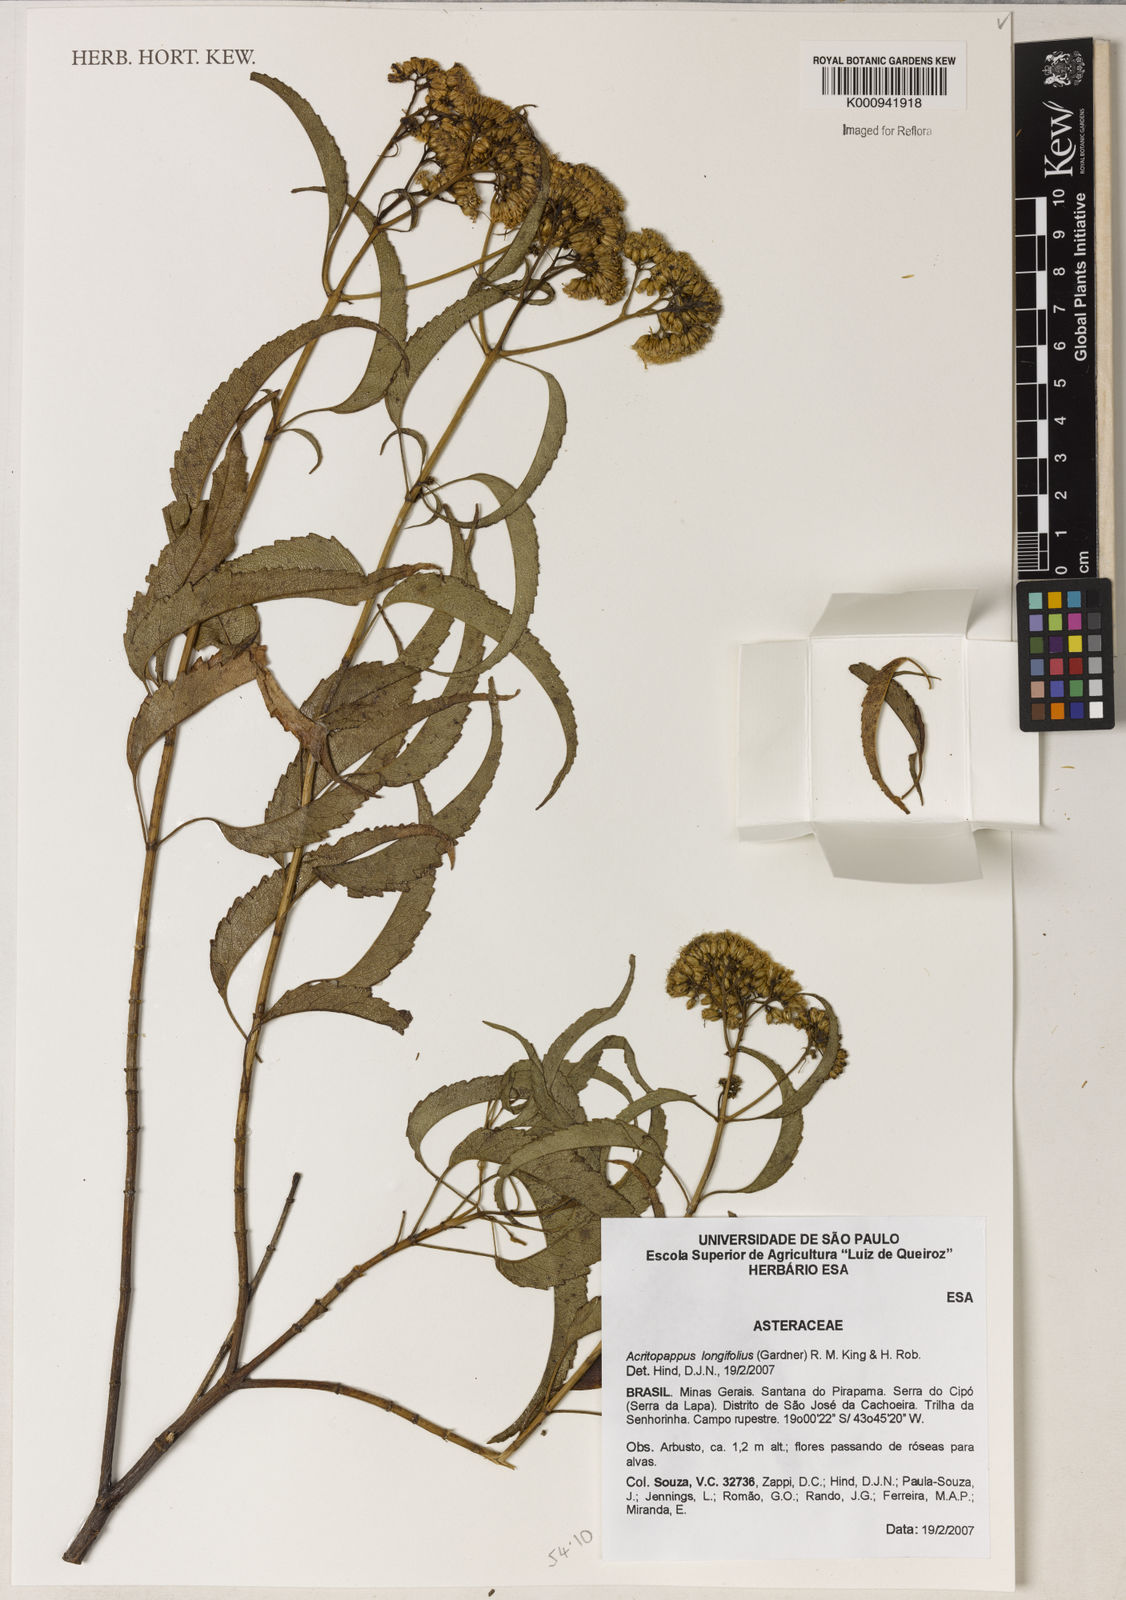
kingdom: Plantae
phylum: Tracheophyta
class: Magnoliopsida
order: Asterales
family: Asteraceae
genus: Acritopappus
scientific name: Acritopappus longifolius
